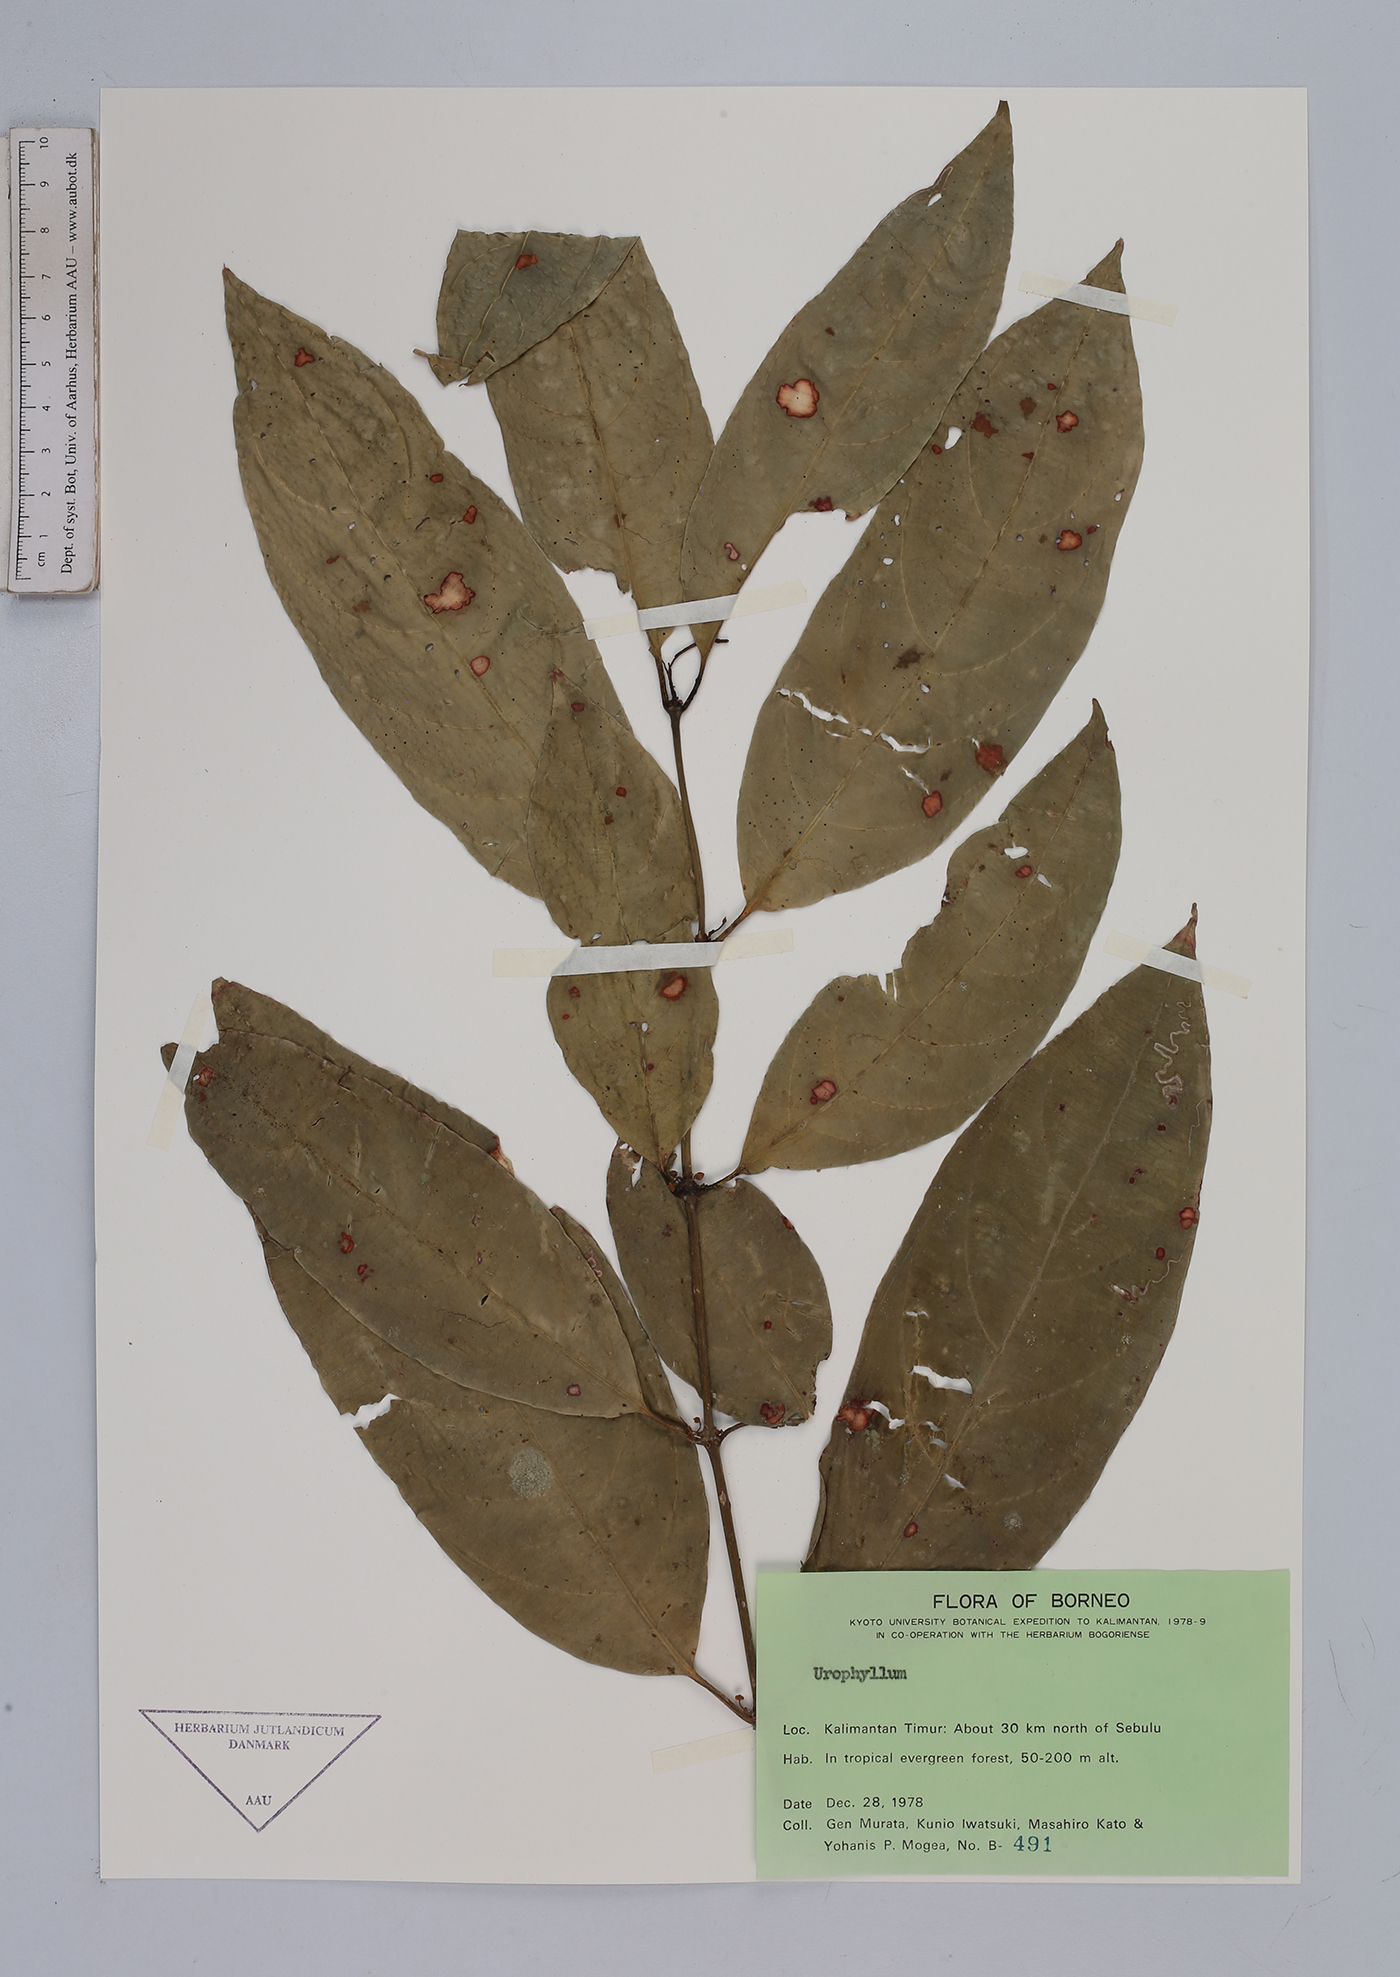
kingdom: Plantae
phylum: Tracheophyta
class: Magnoliopsida
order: Gentianales
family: Rubiaceae
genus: Urophyllum
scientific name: Urophyllum
